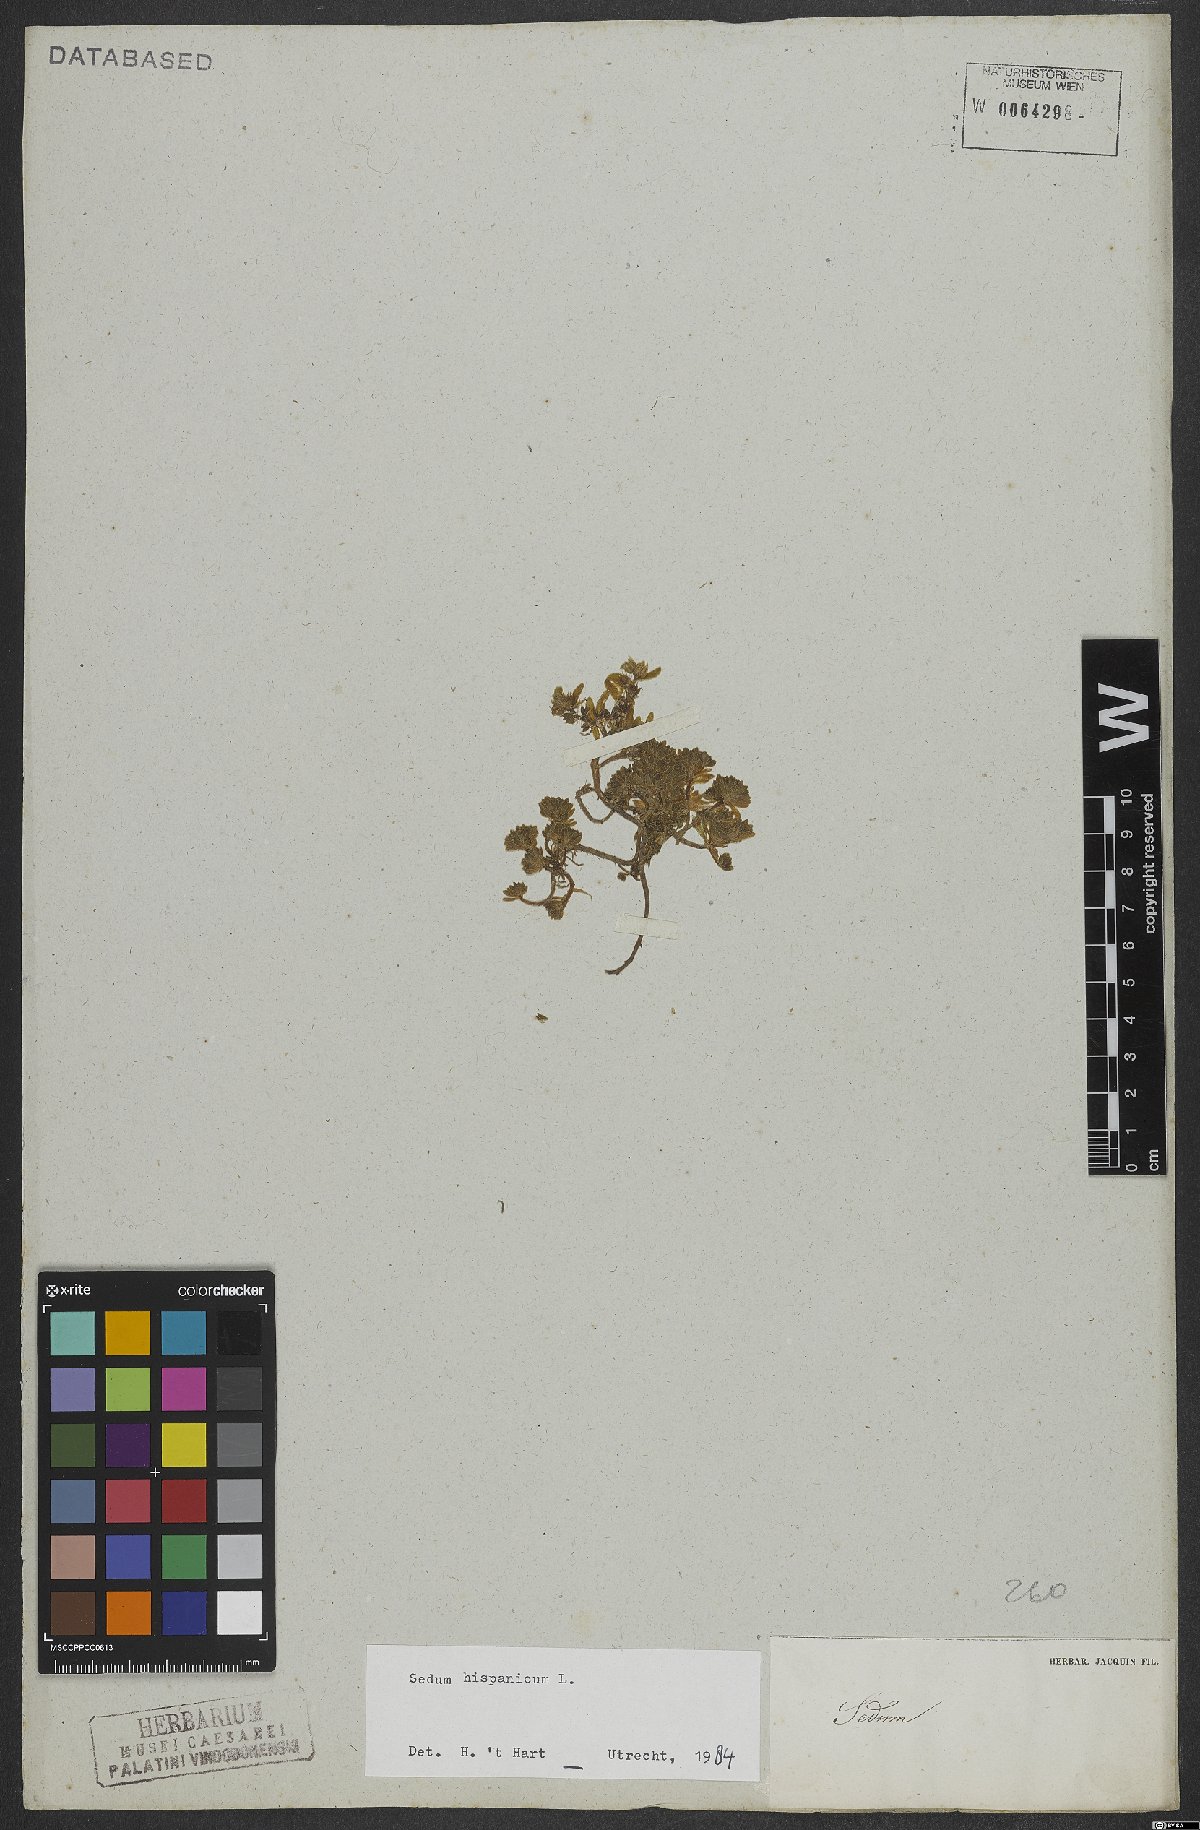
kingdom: Plantae
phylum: Tracheophyta
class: Magnoliopsida
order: Saxifragales
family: Crassulaceae
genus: Sedum
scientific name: Sedum hispanicum
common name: Spanish stonecrop
